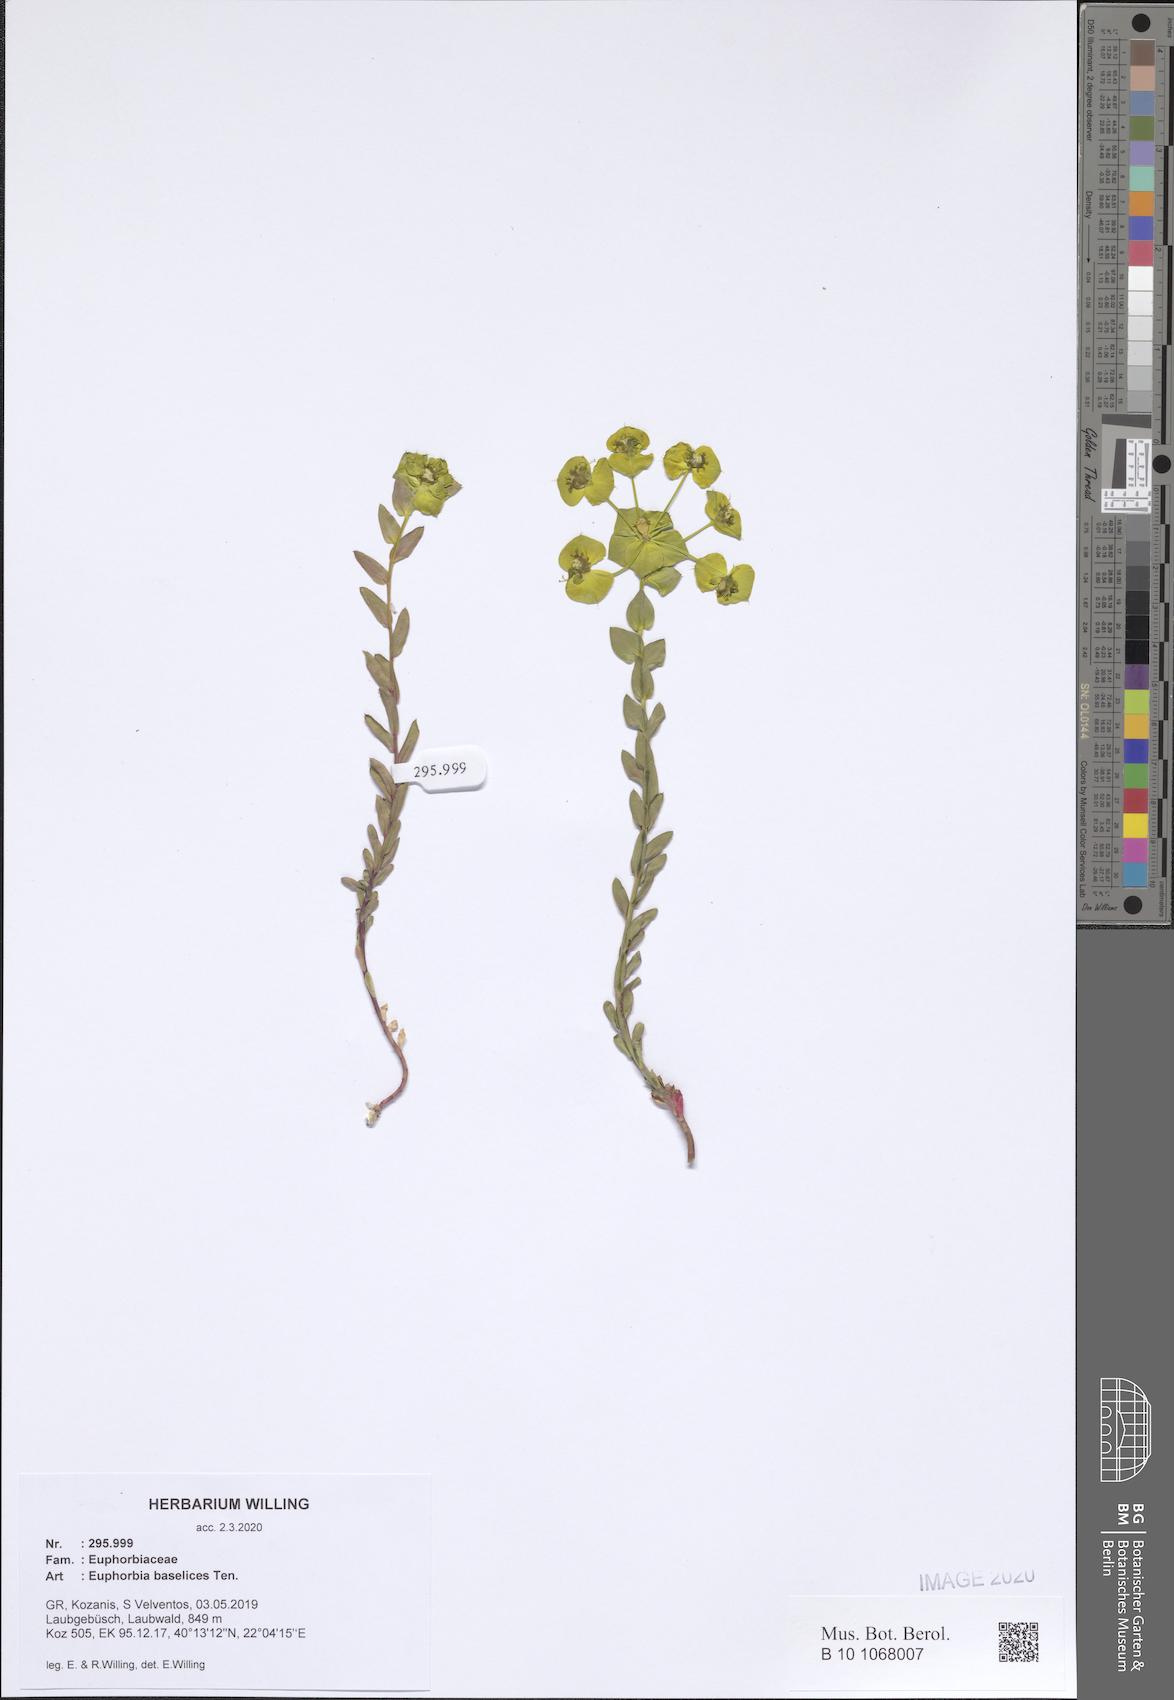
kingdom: Plantae
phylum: Tracheophyta
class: Magnoliopsida
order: Malpighiales
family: Euphorbiaceae
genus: Euphorbia
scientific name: Euphorbia barrelieri
